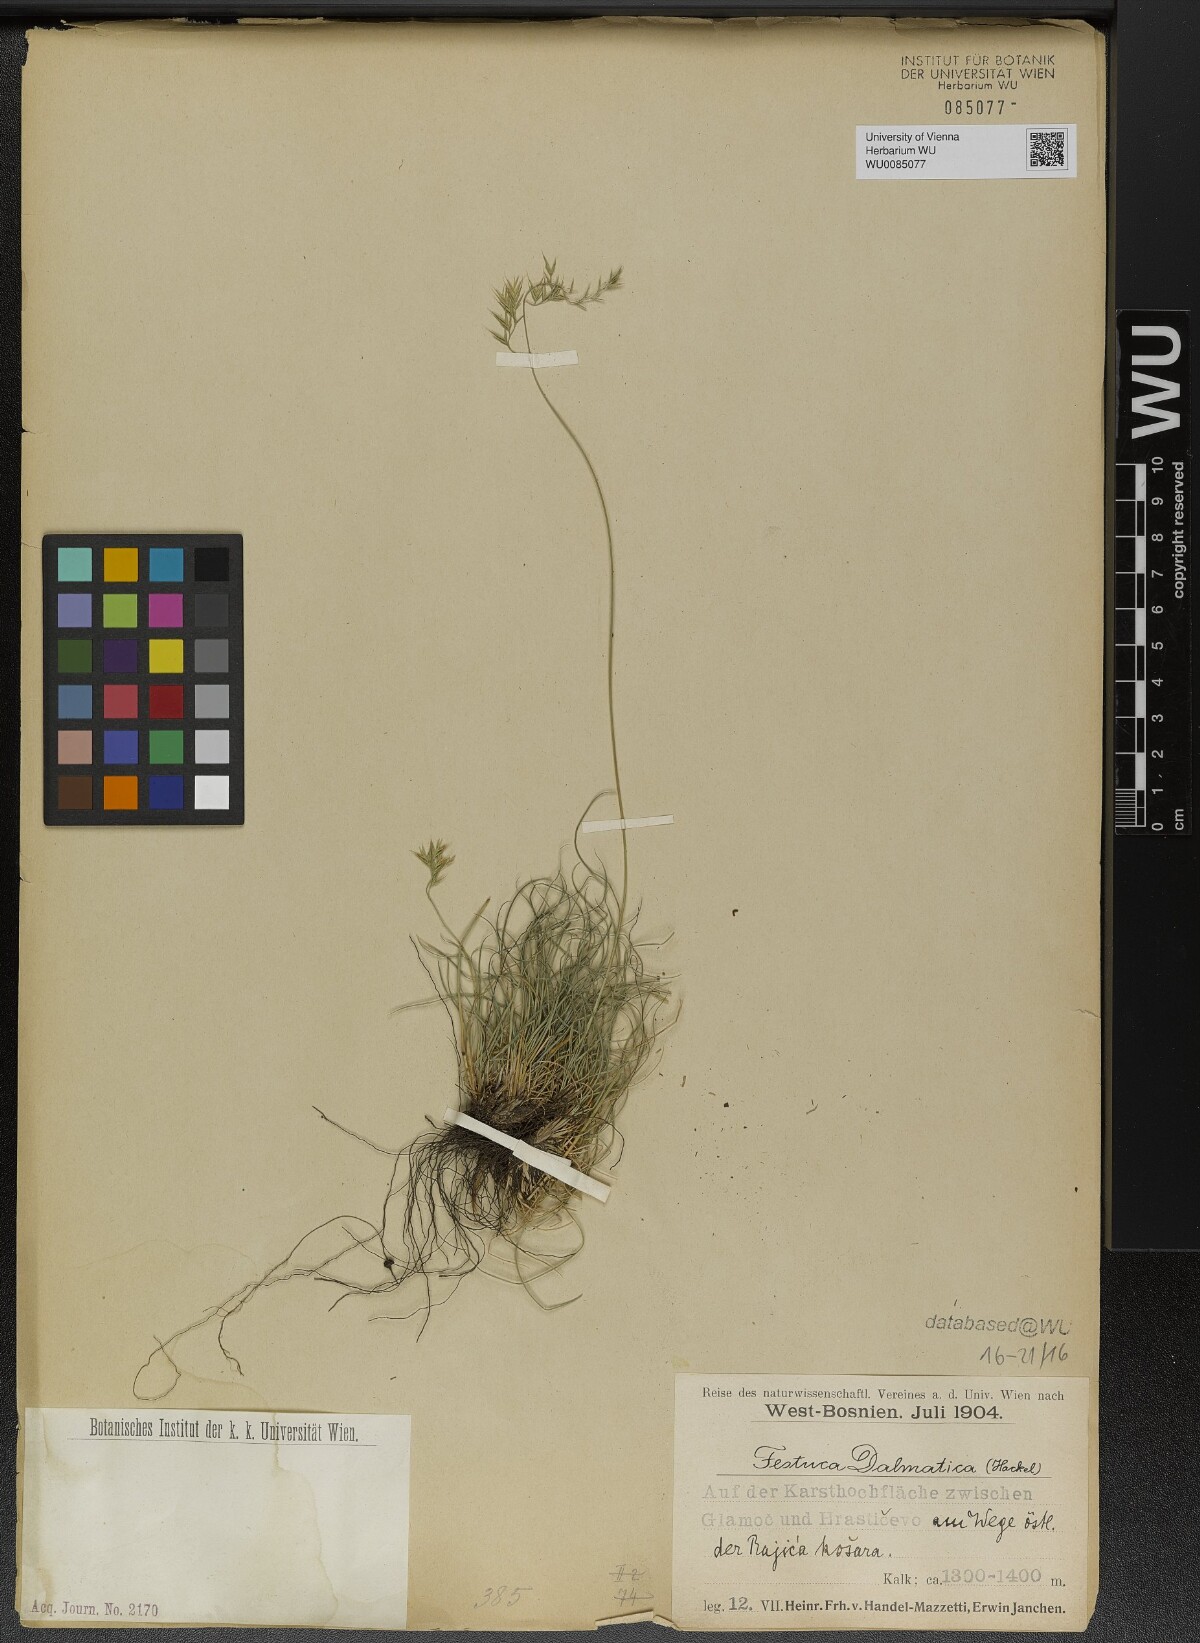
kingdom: Plantae
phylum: Tracheophyta
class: Liliopsida
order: Poales
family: Poaceae
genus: Festuca
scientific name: Festuca dalmatica
